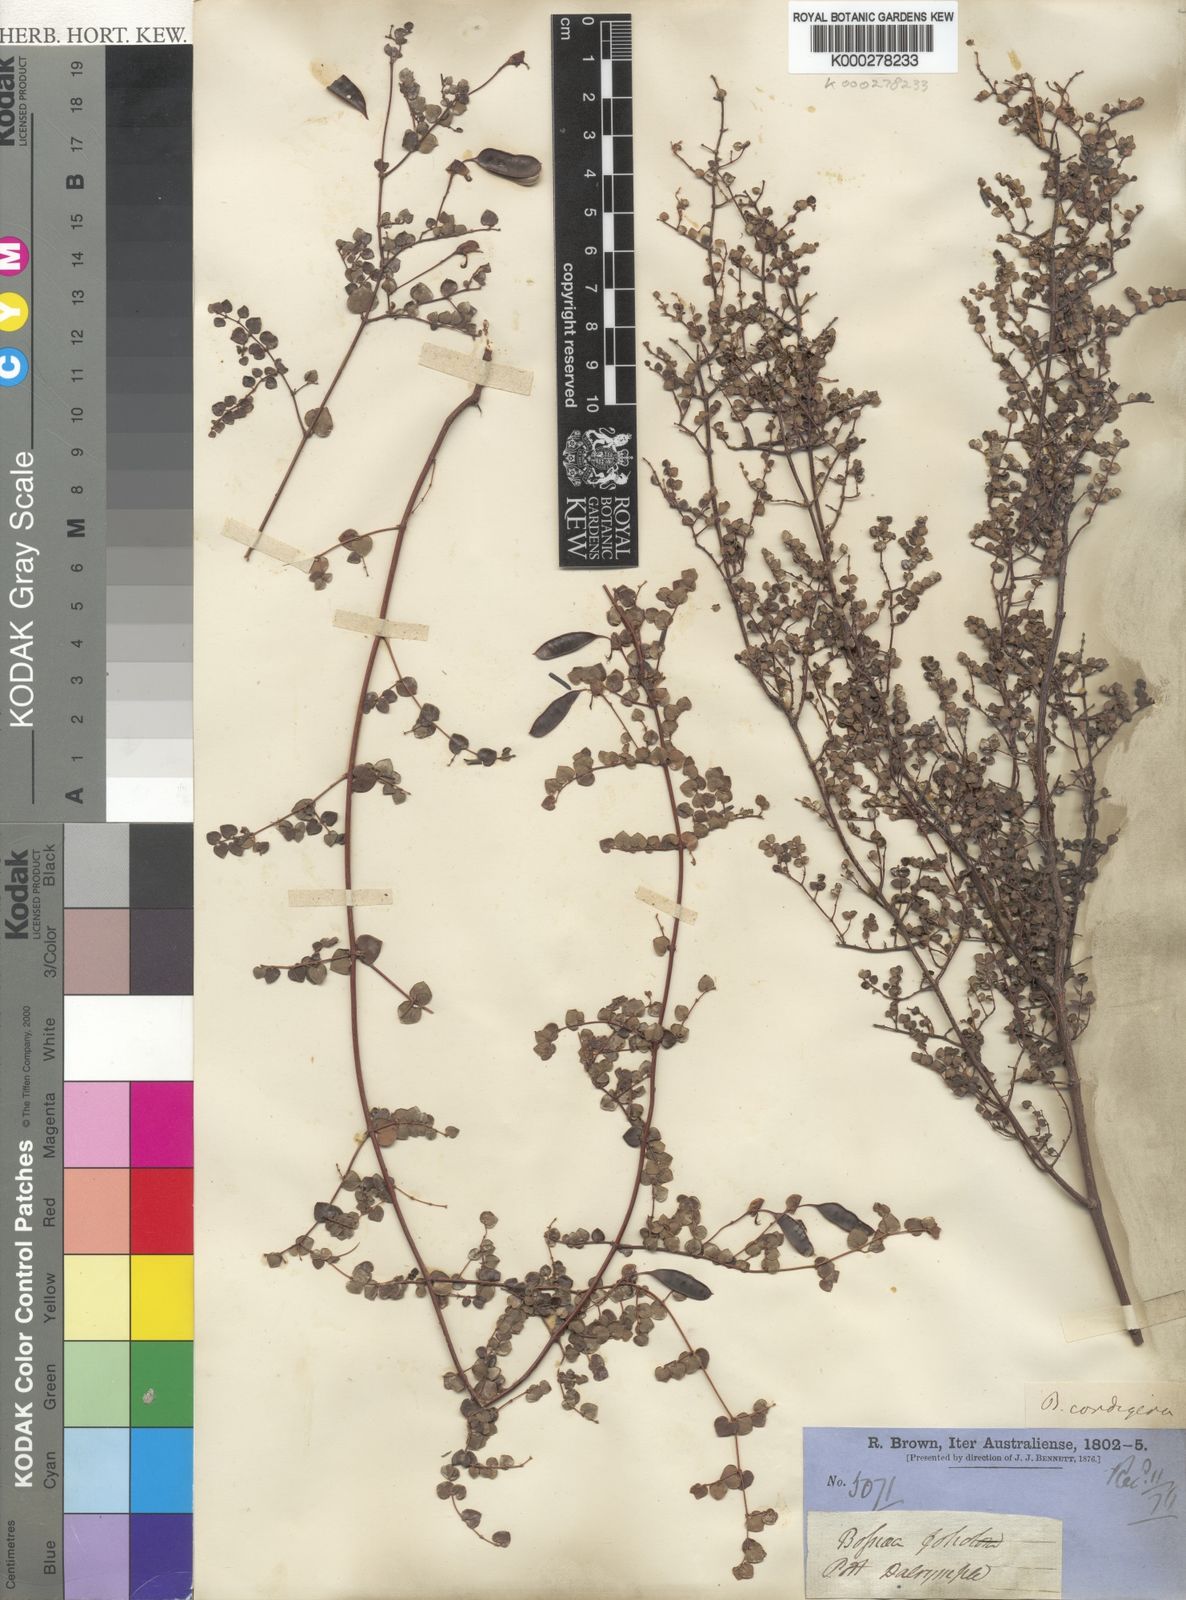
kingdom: Plantae
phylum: Tracheophyta
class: Magnoliopsida
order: Fabales
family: Fabaceae
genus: Bossiaea
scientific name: Bossiaea hendersonii
